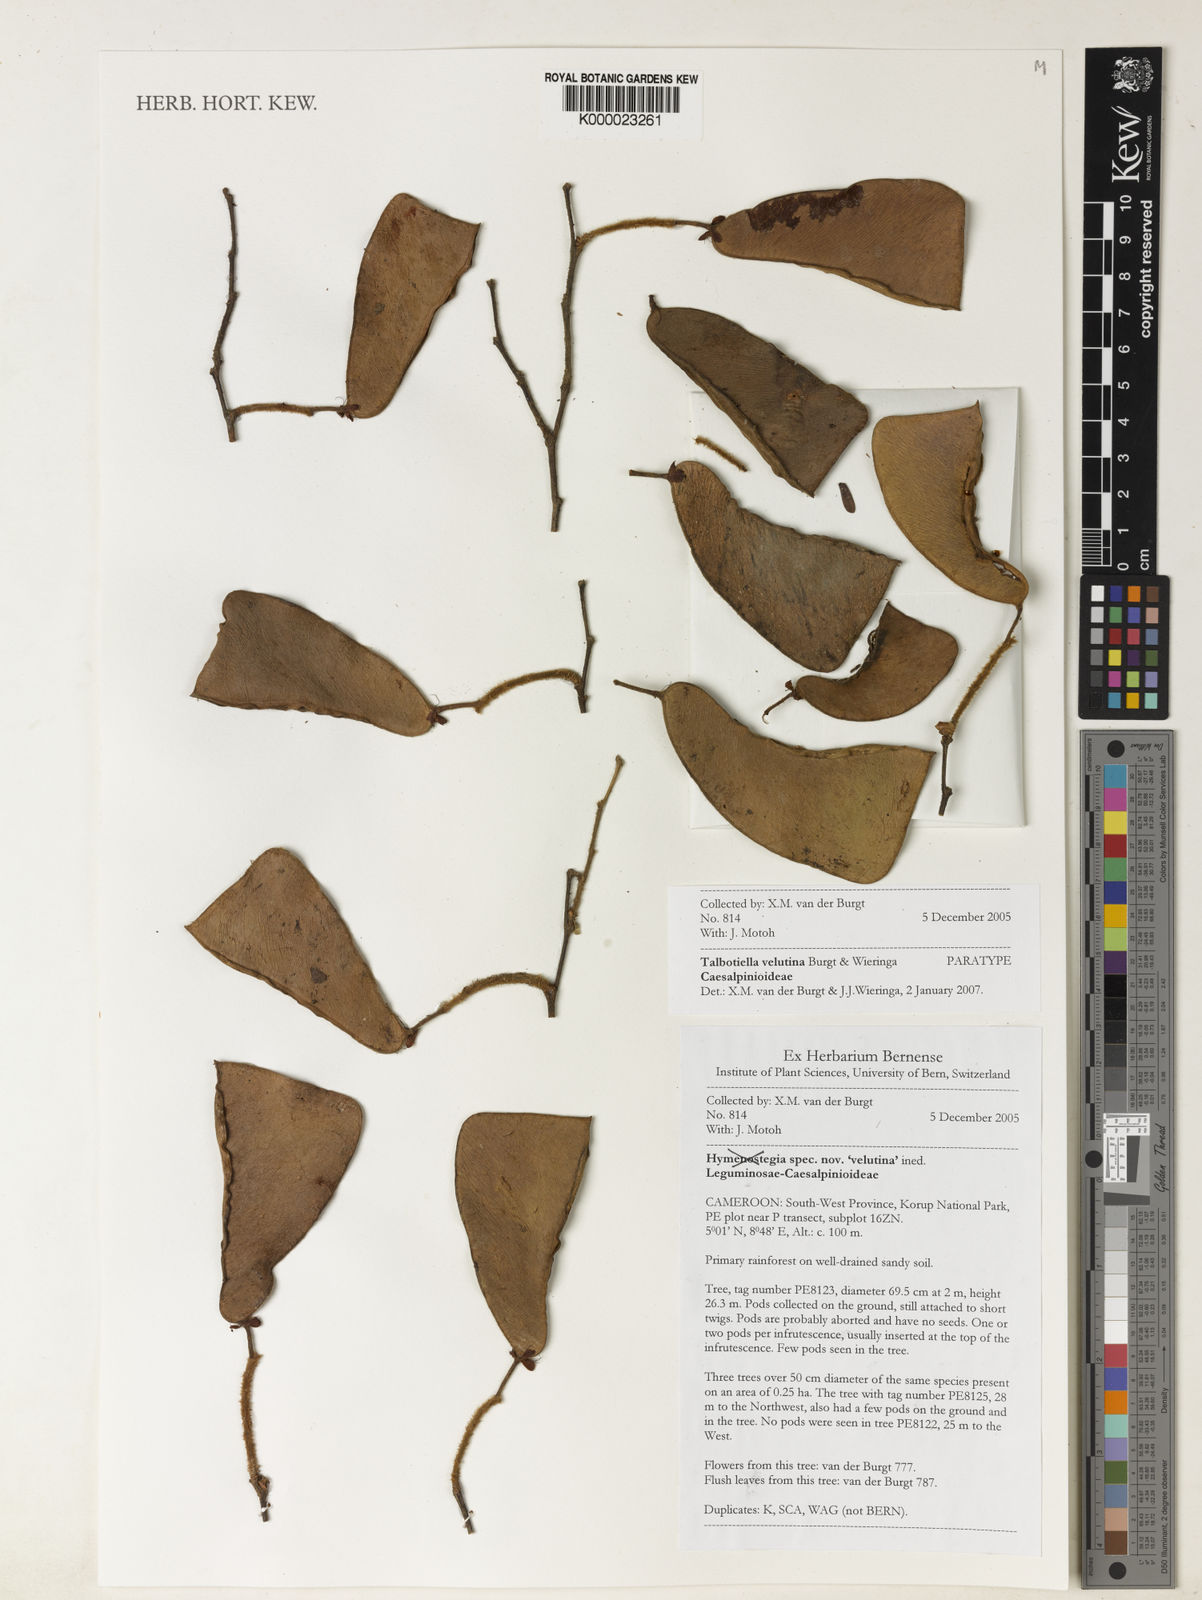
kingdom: Plantae
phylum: Tracheophyta
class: Magnoliopsida
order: Fabales
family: Fabaceae
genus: Talbotiella
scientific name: Talbotiella velutina
